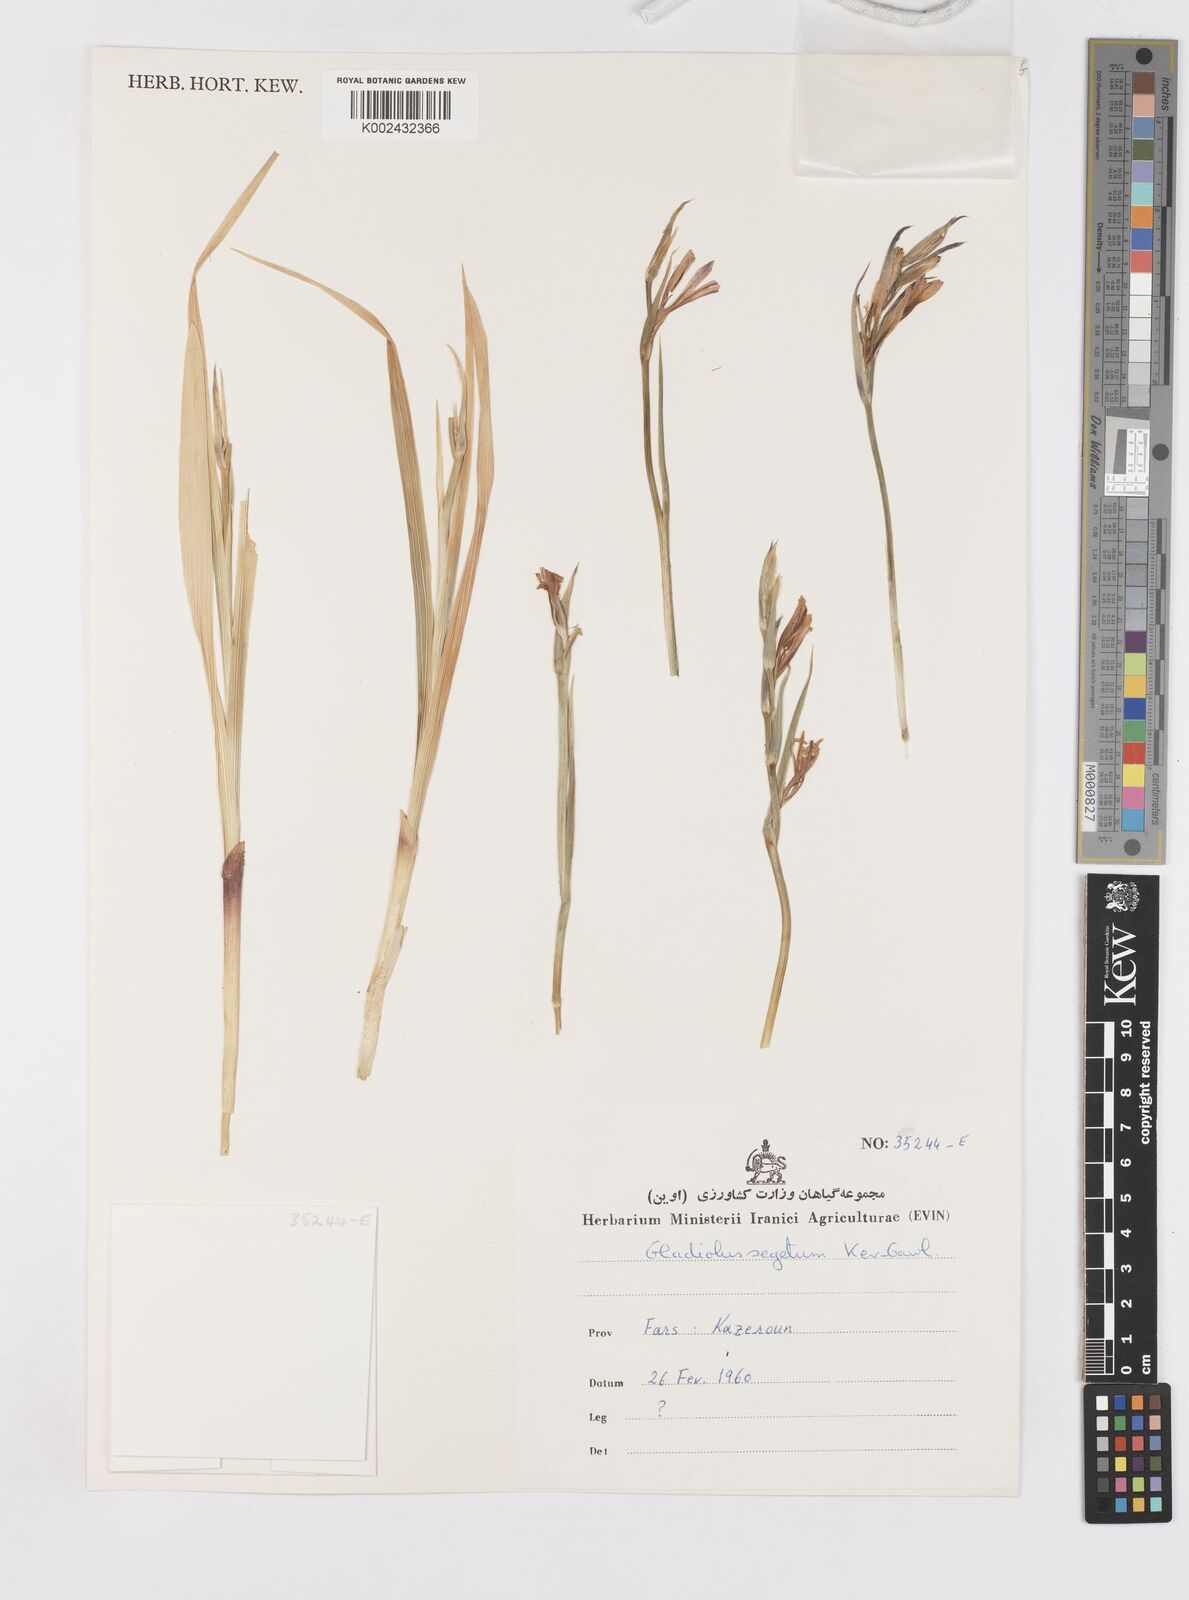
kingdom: Plantae
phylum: Tracheophyta
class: Liliopsida
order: Asparagales
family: Iridaceae
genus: Gladiolus
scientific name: Gladiolus italicus
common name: Field gladiolus
